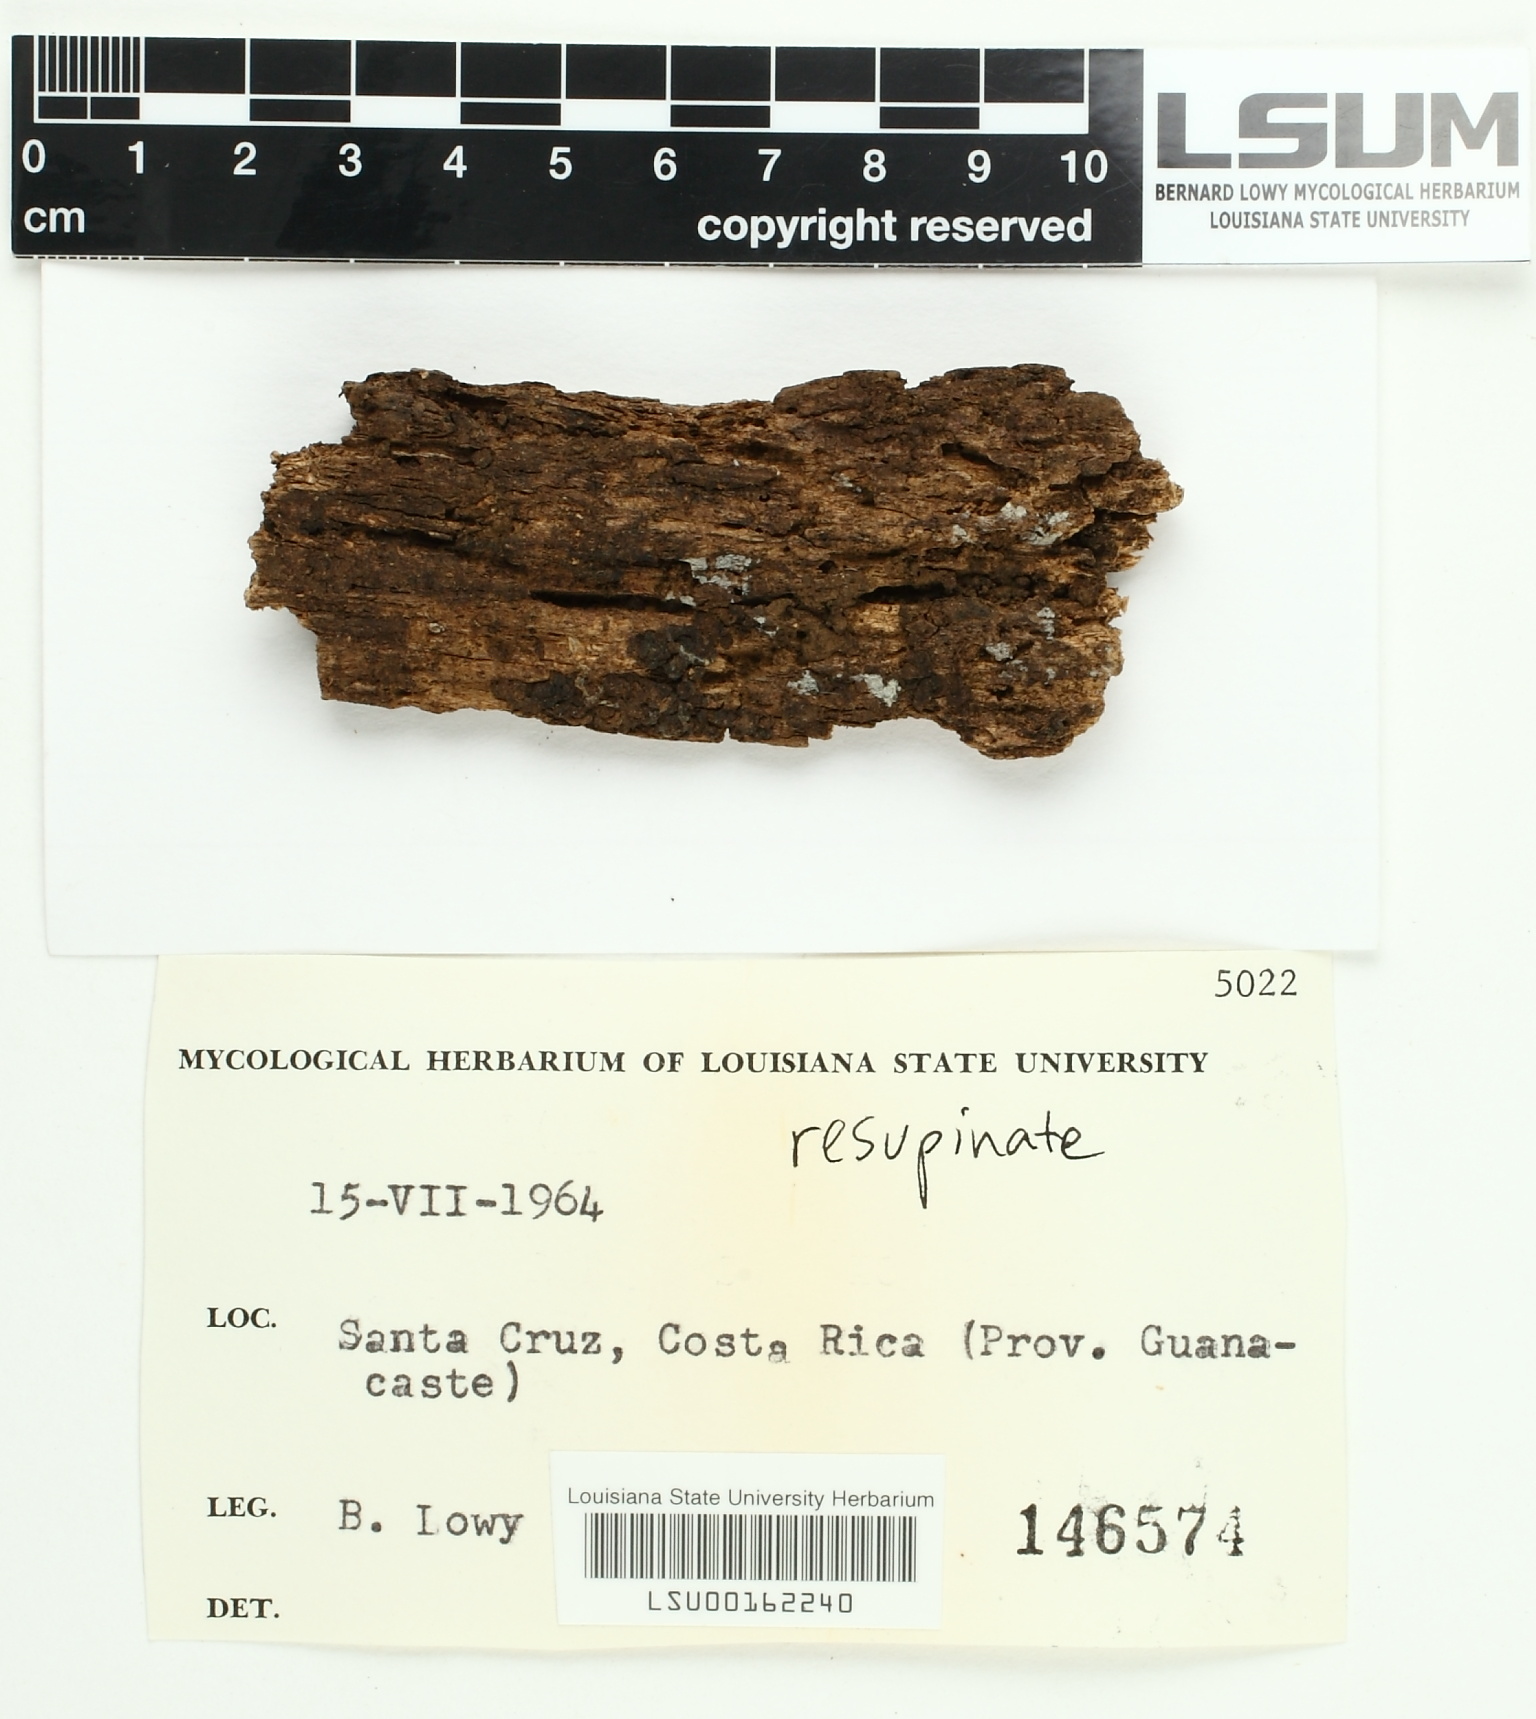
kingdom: Fungi
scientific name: Fungi
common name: Fungi
